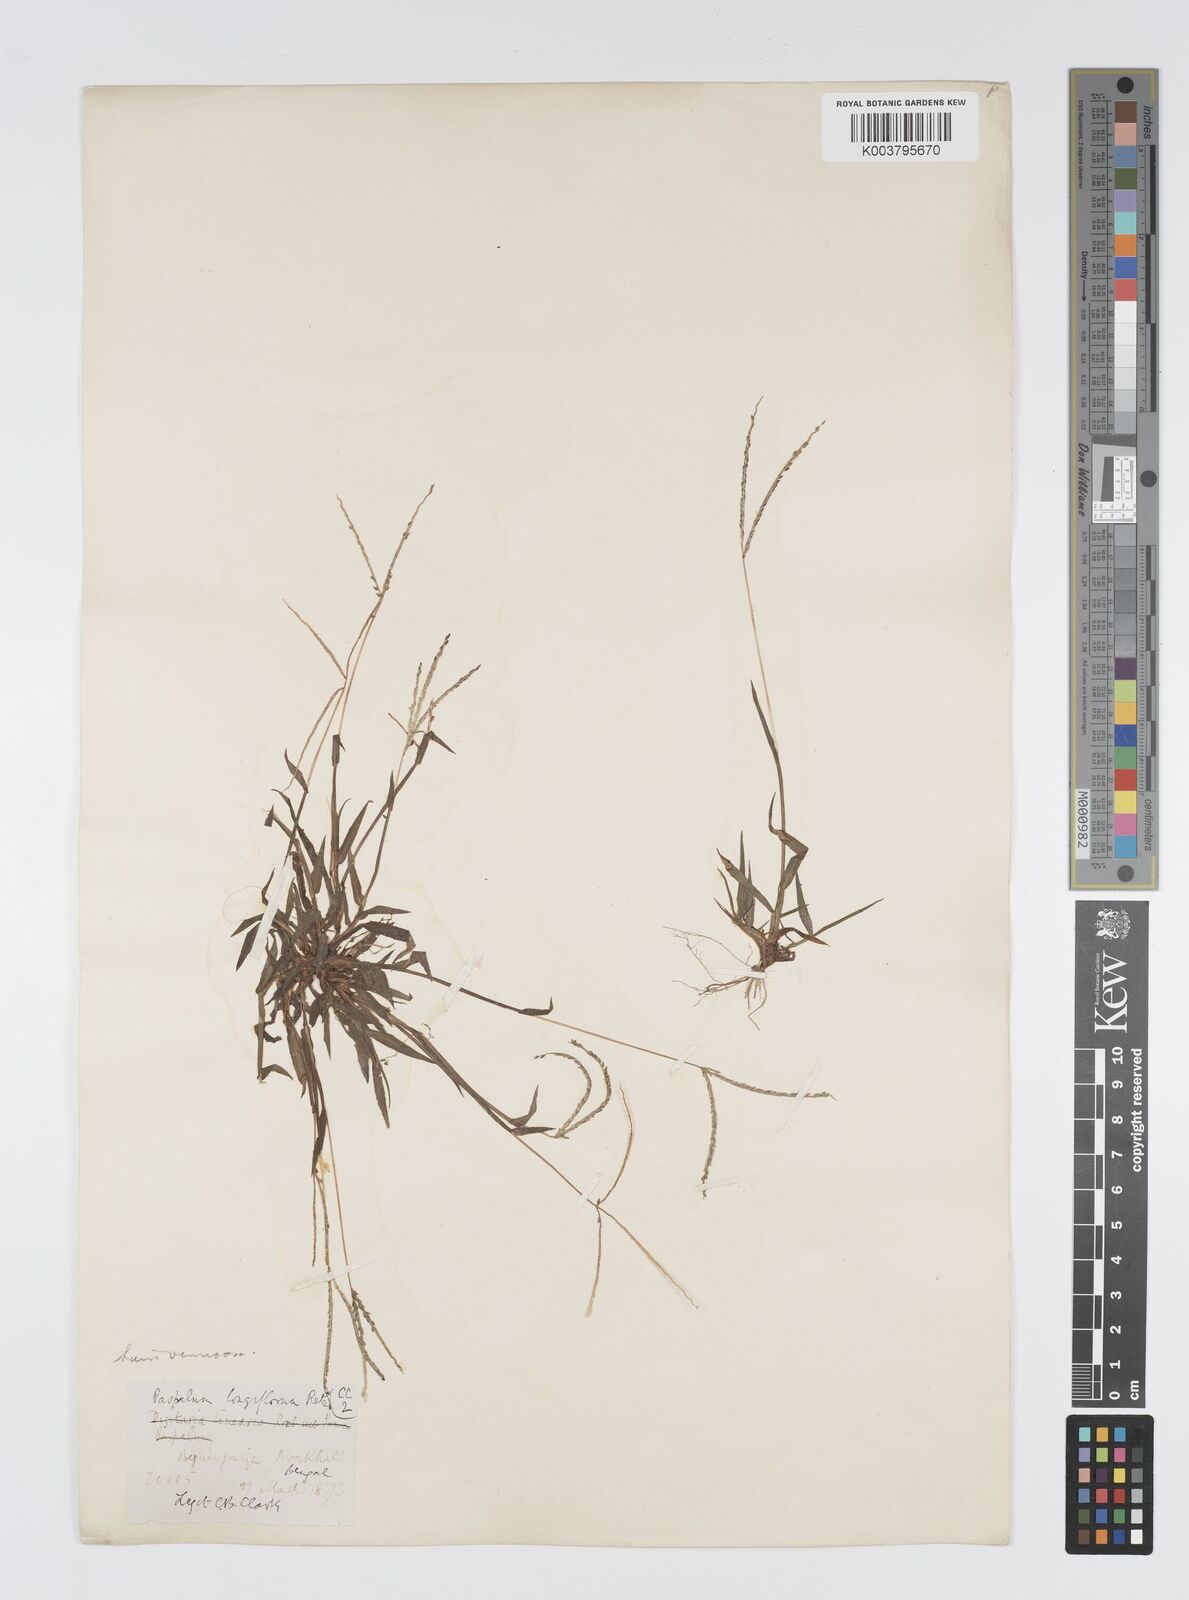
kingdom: Plantae
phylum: Tracheophyta
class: Liliopsida
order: Poales
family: Poaceae
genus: Digitaria
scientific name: Digitaria longiflora
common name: Wire crabgrass
